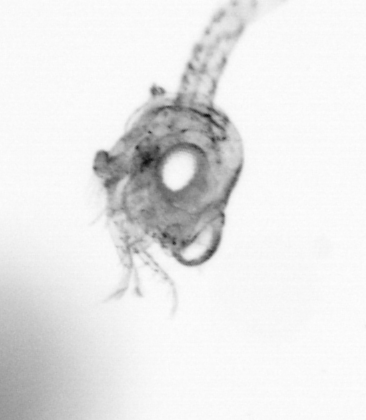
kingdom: Animalia
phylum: Arthropoda
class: Copepoda
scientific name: Copepoda
